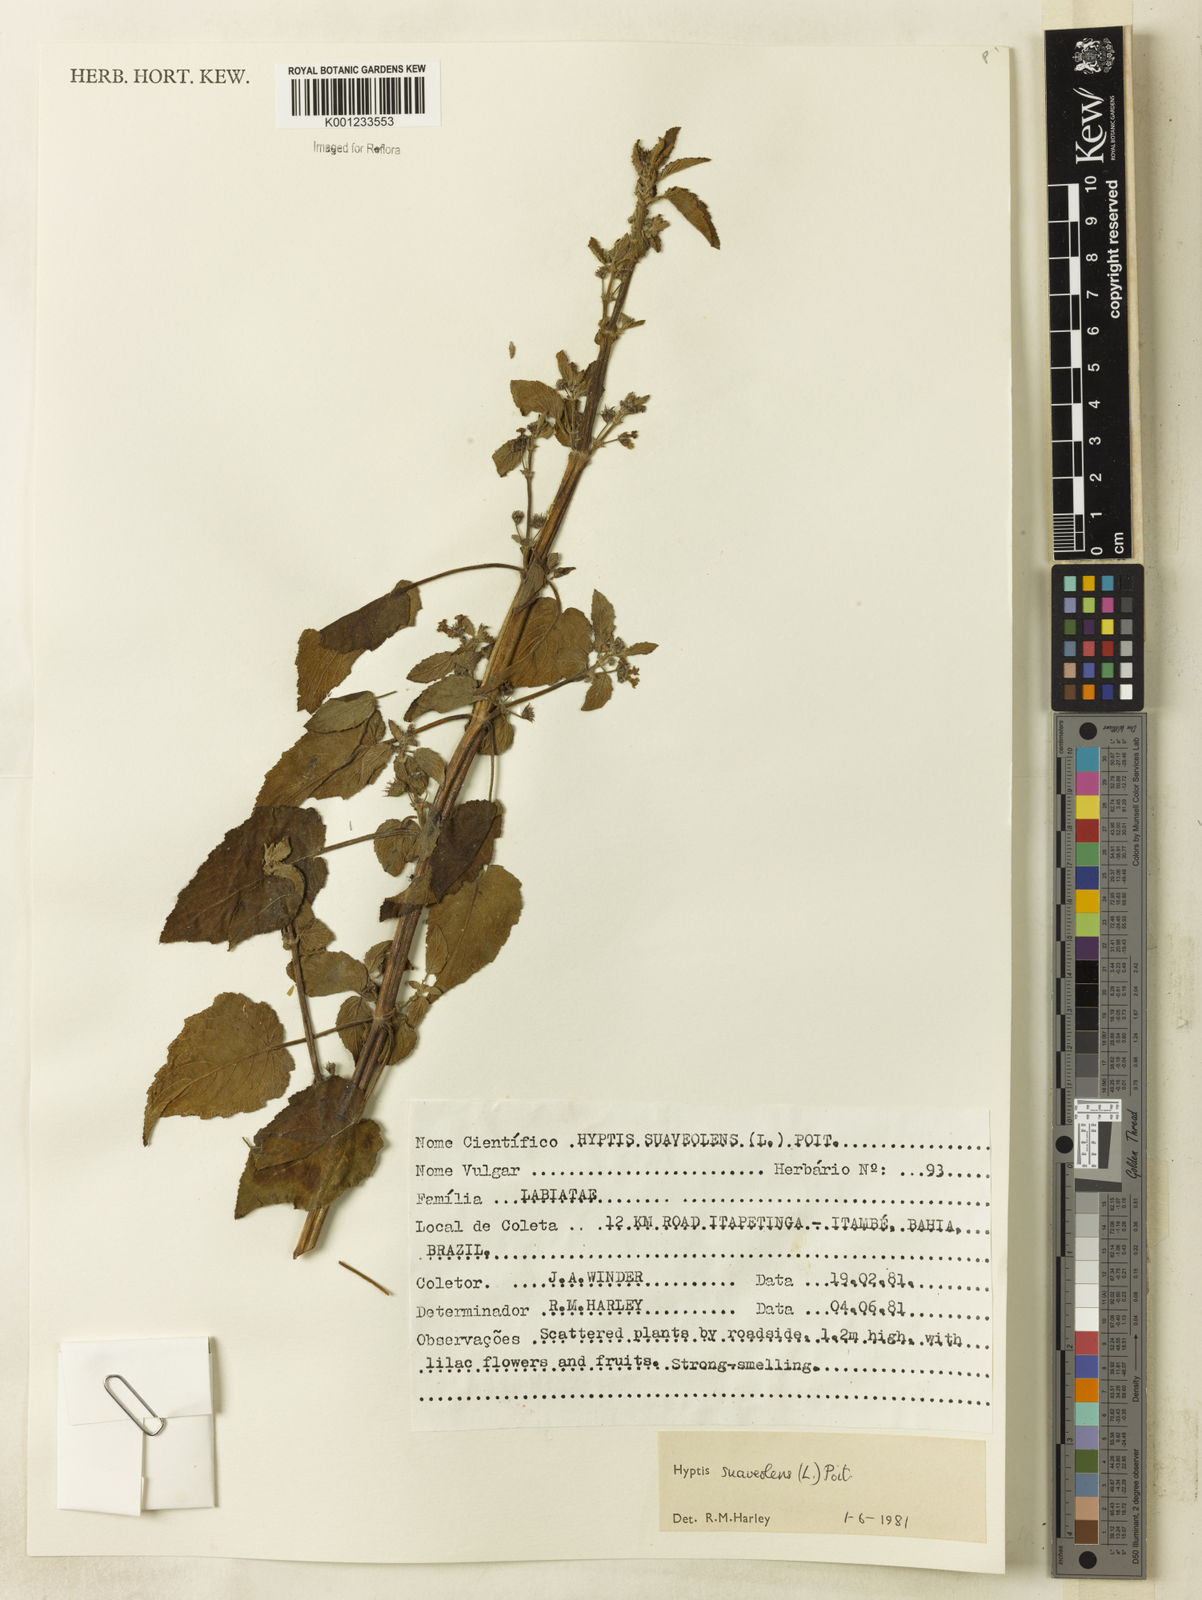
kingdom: Plantae
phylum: Tracheophyta
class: Magnoliopsida
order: Lamiales
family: Lamiaceae
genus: Mesosphaerum
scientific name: Mesosphaerum suaveolens
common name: Pignut
